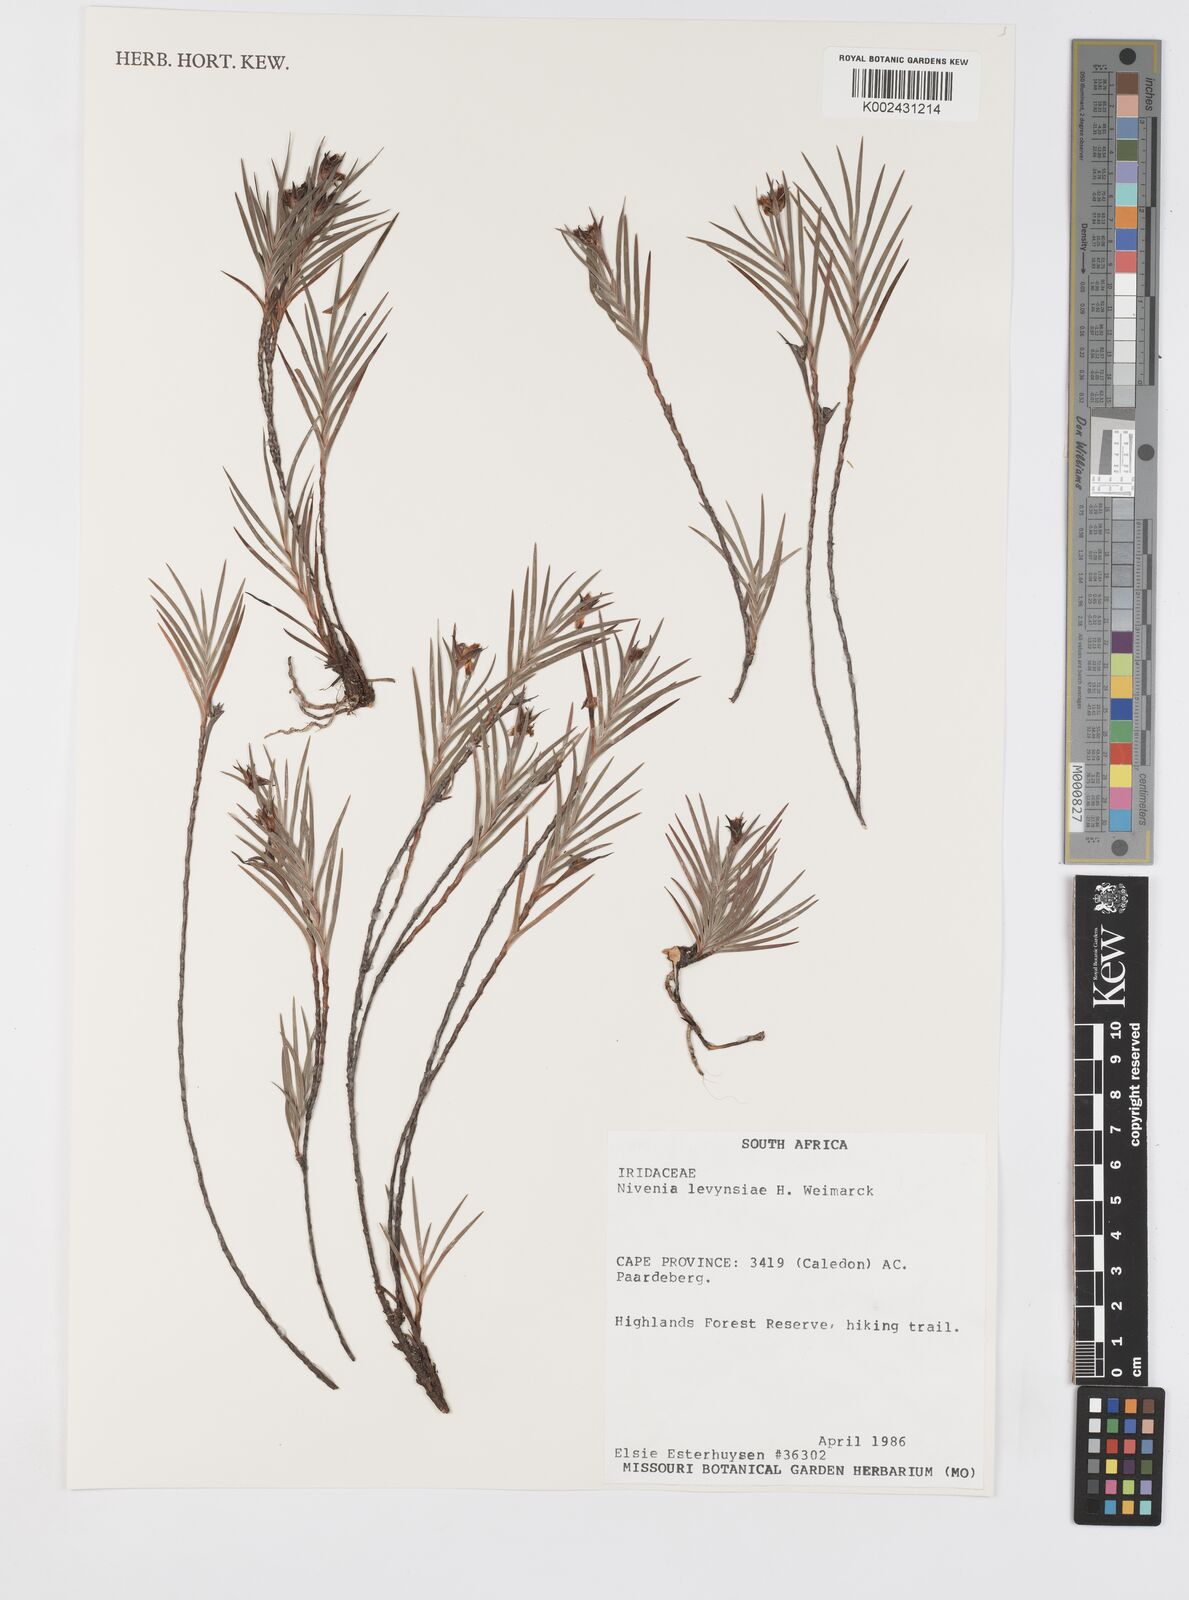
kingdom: Plantae
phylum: Tracheophyta
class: Liliopsida
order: Asparagales
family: Iridaceae
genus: Nivenia
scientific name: Nivenia levynsiae
